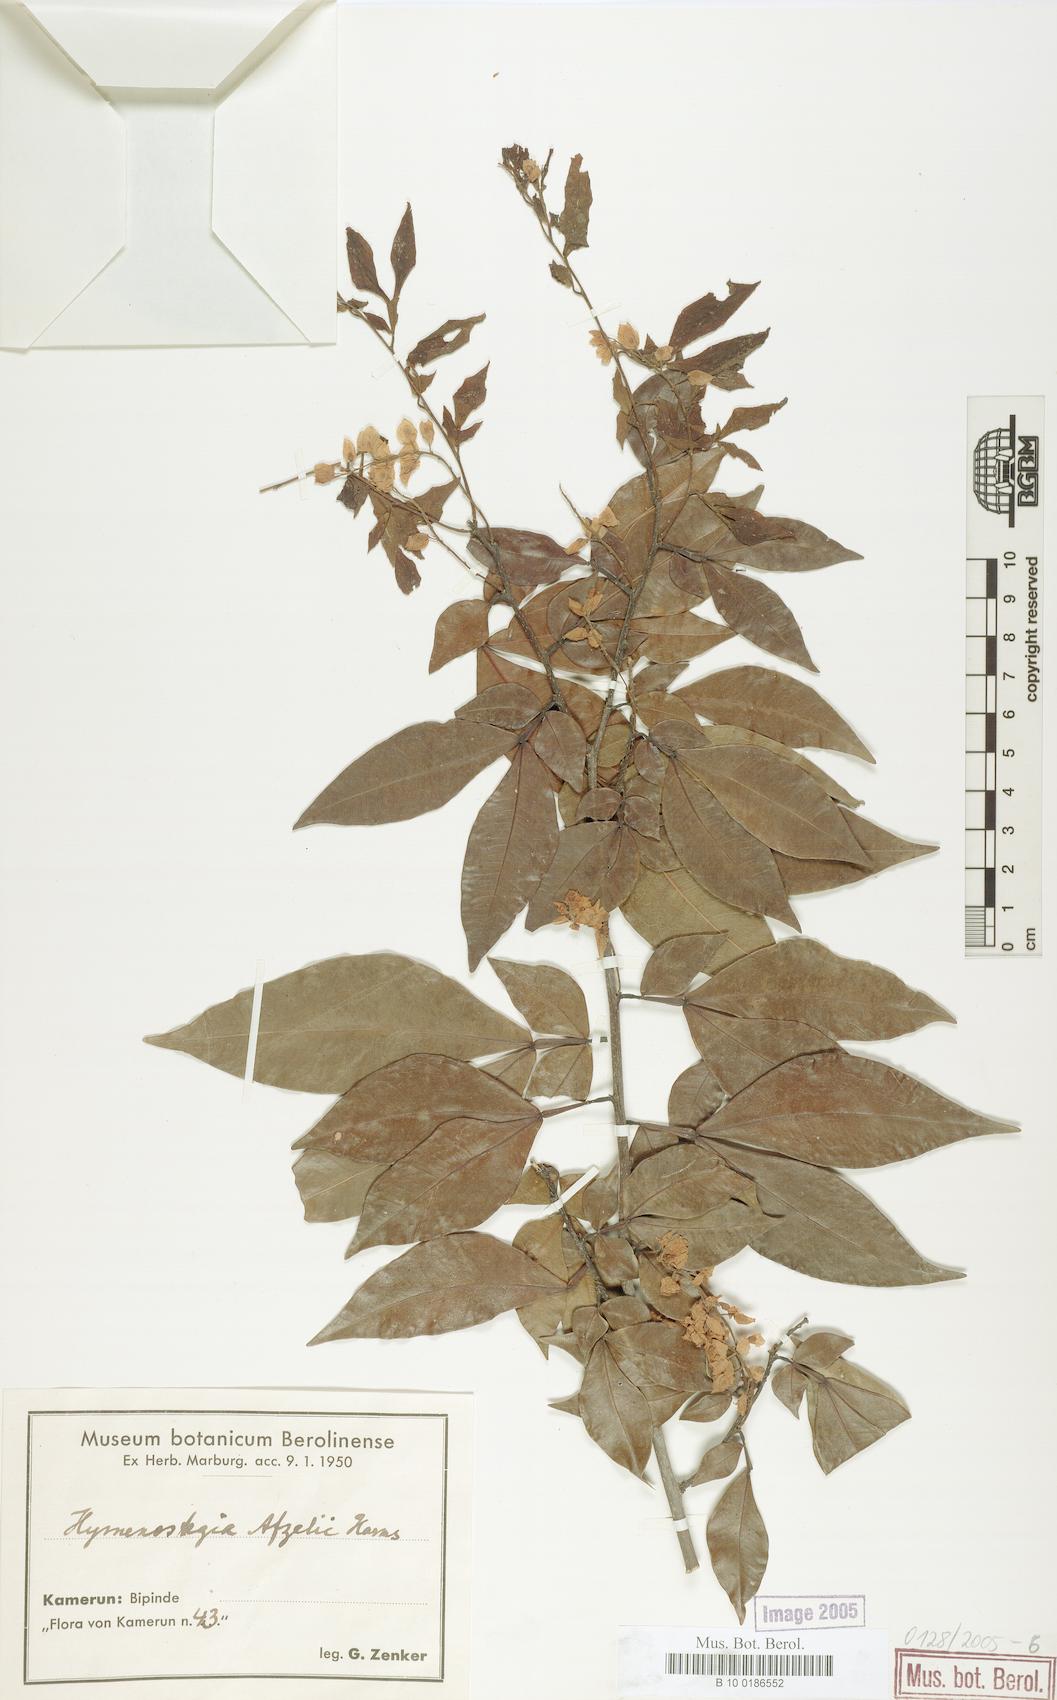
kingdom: Plantae
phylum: Tracheophyta
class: Magnoliopsida
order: Fabales
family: Fabaceae
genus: Annea
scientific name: Annea afzelii
